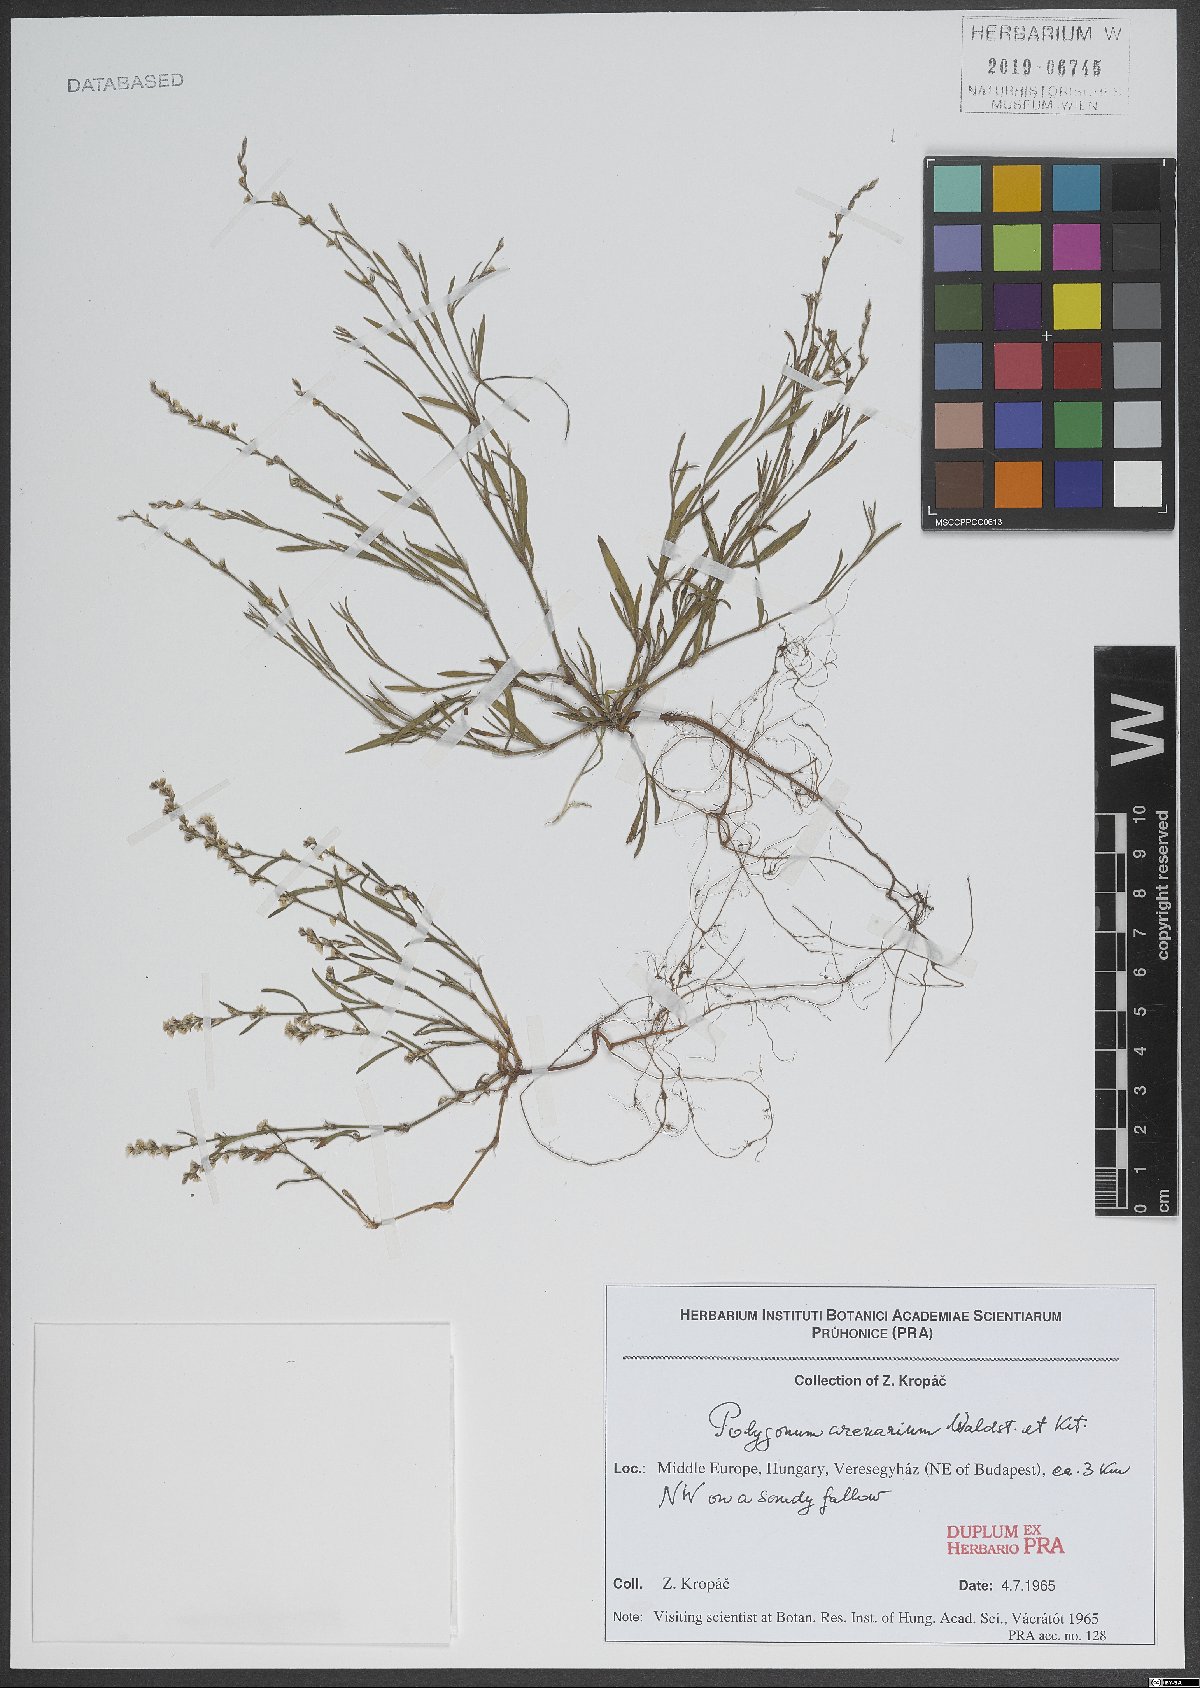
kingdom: Plantae
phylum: Tracheophyta
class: Magnoliopsida
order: Caryophyllales
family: Polygonaceae
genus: Polygonum
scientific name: Polygonum arenarium
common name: Lesser red-knotgrass
